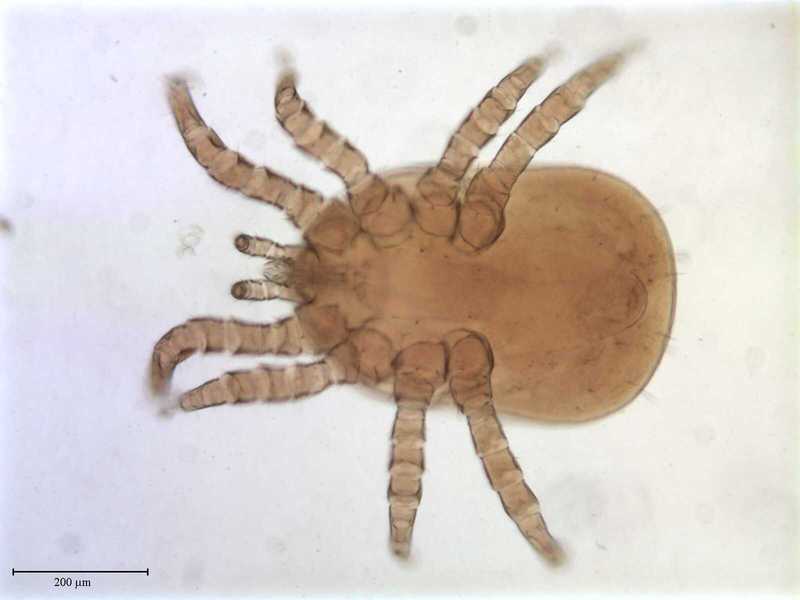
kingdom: Animalia
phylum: Arthropoda
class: Arachnida
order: Mesostigmata
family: Dermanyssidae
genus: Dermanyssus
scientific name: Dermanyssus quintus
